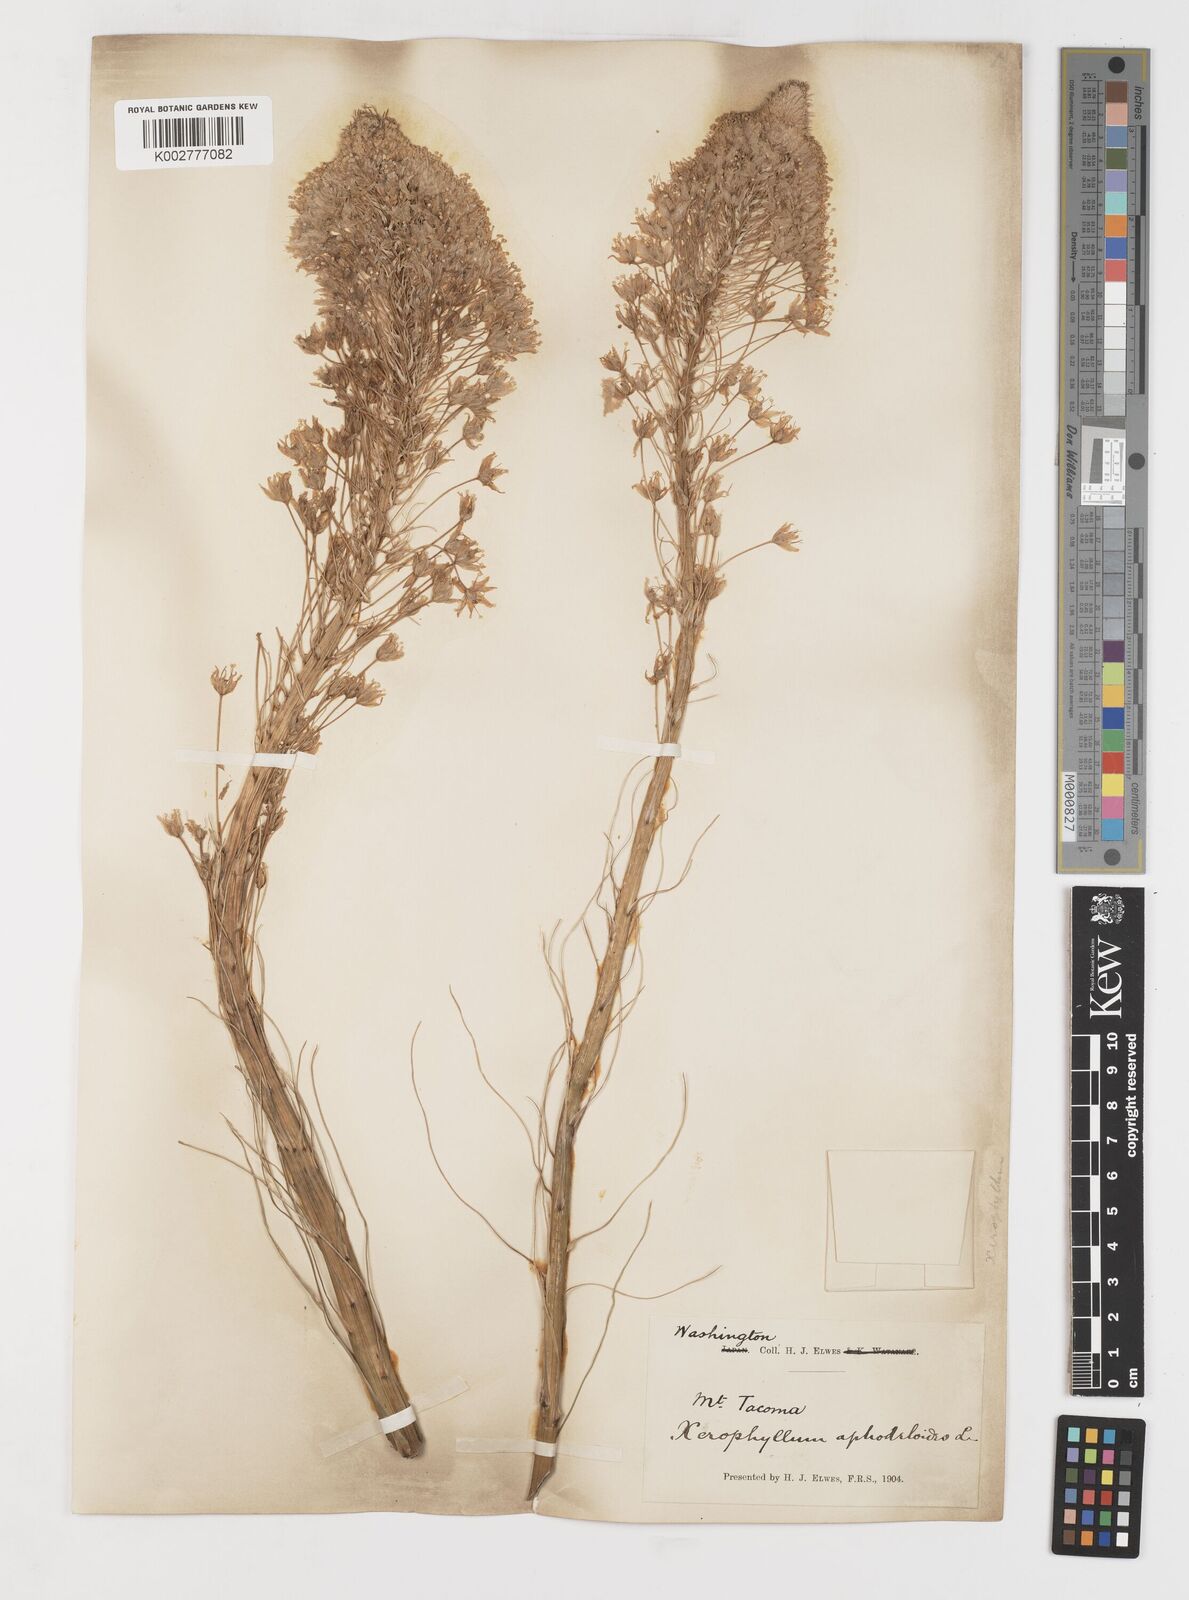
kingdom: Plantae
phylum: Tracheophyta
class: Liliopsida
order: Liliales
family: Melanthiaceae
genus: Xerophyllum
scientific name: Xerophyllum tenax
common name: Bear-grass
